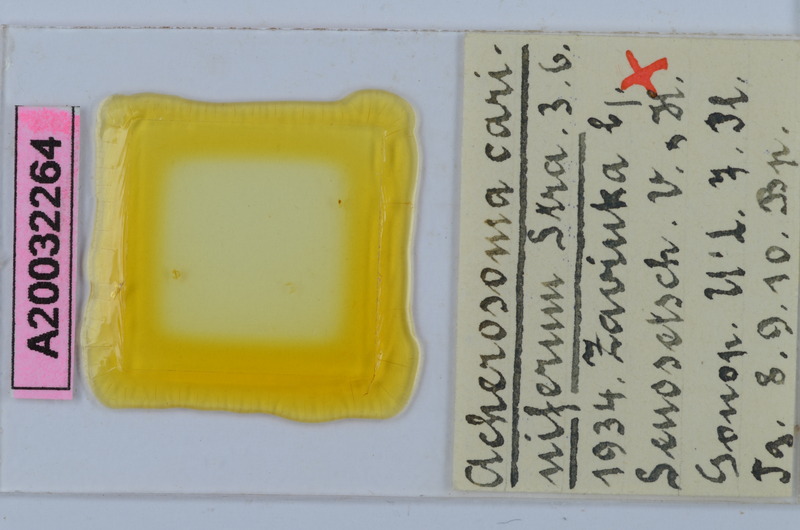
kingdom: Animalia
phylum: Arthropoda
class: Diplopoda
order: Chordeumatida
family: Anthogonidae
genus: Haasia
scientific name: Haasia carinifera
